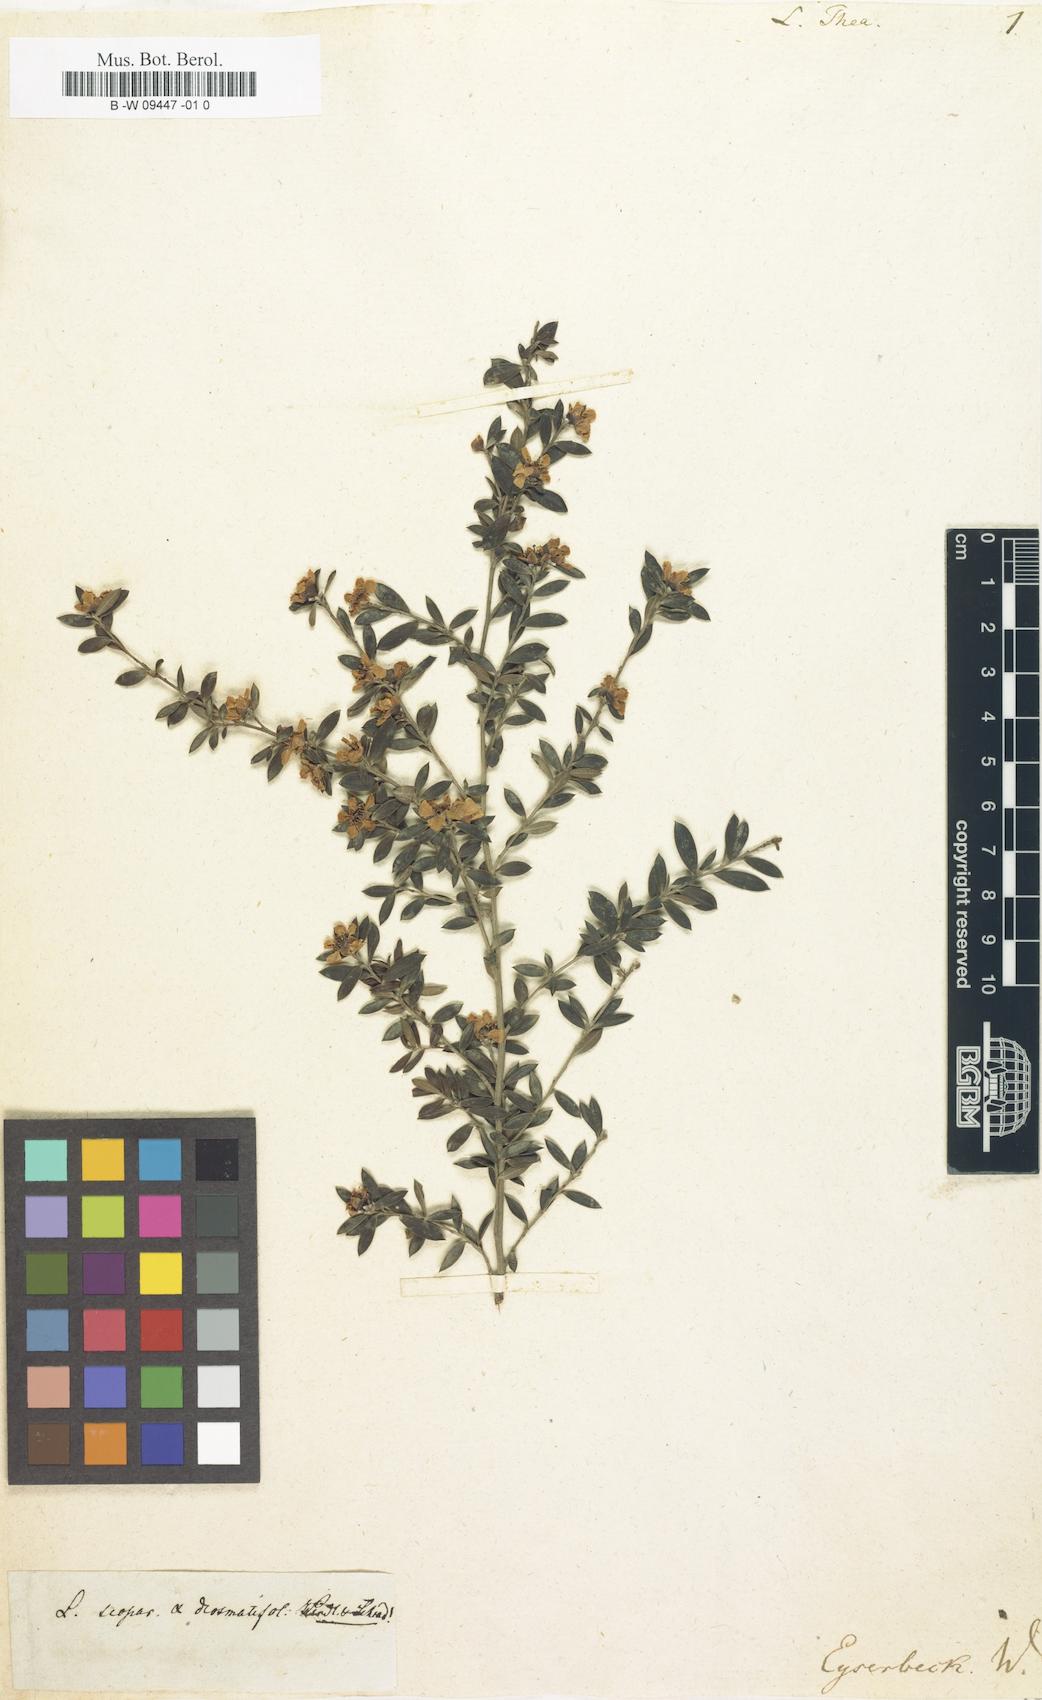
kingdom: Plantae
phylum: Tracheophyta
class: Magnoliopsida
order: Myrtales
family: Myrtaceae
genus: Leptospermum
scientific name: Leptospermum polygalifolium
